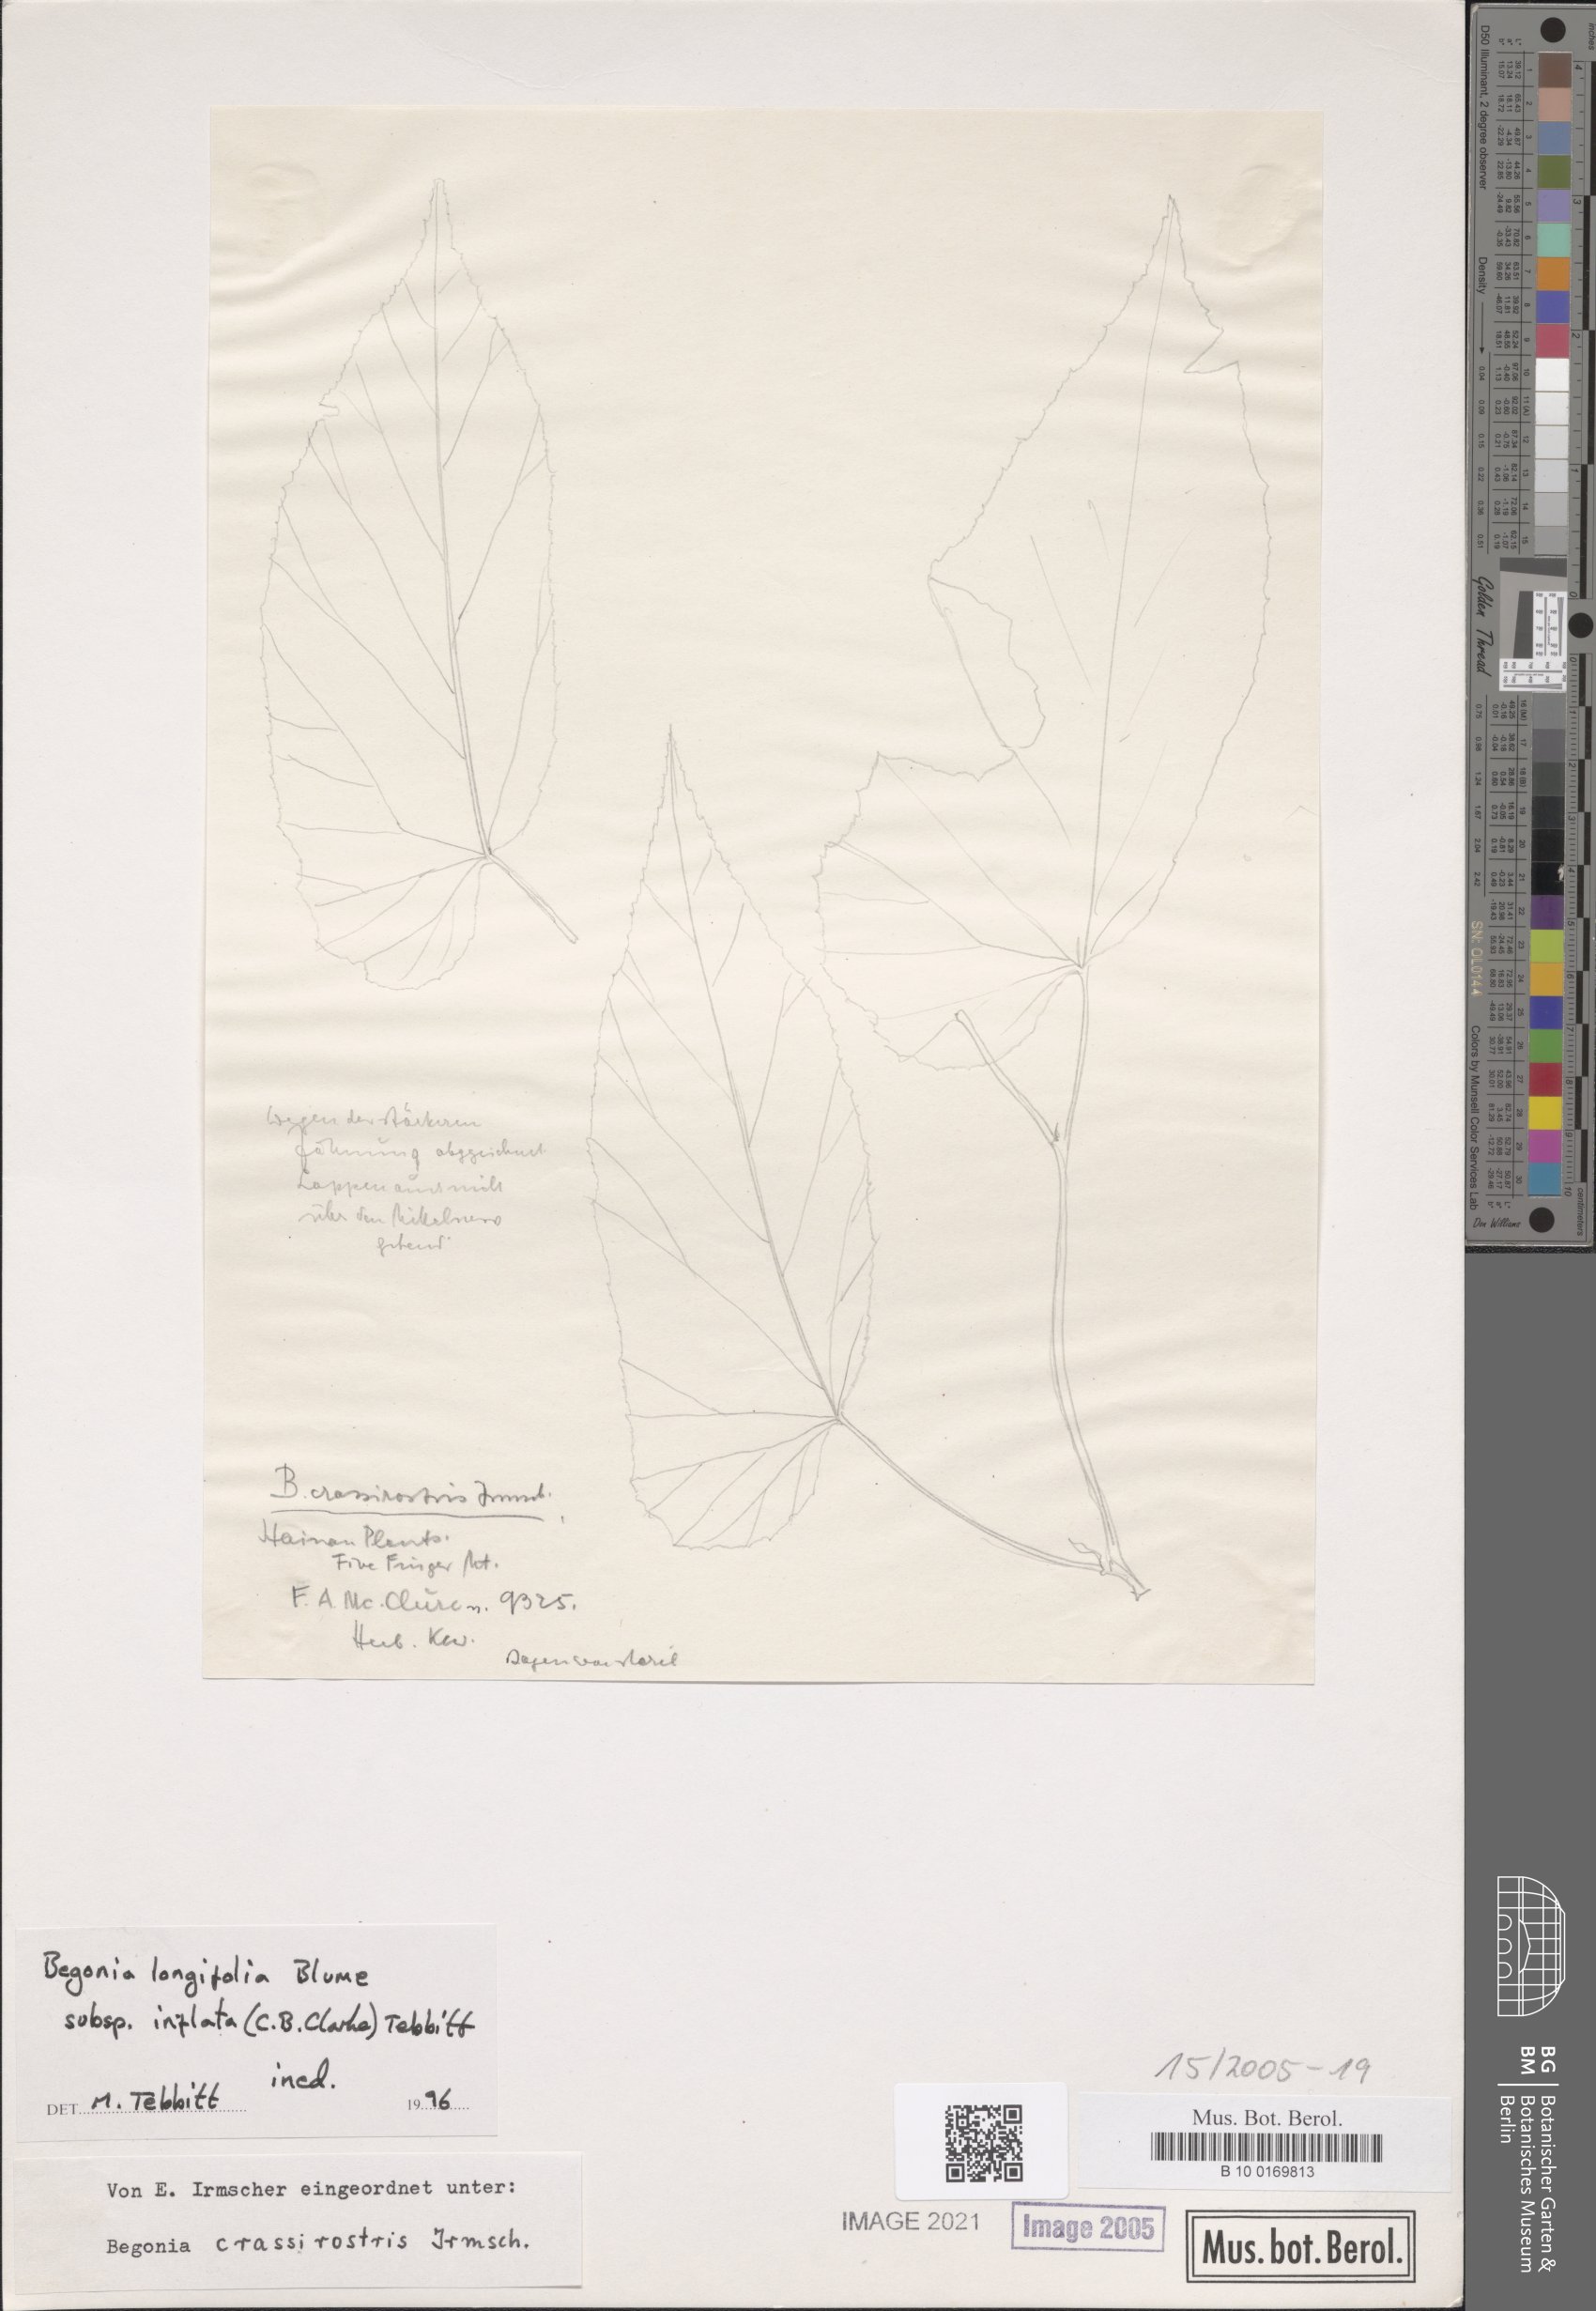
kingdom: Plantae
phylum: Tracheophyta
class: Magnoliopsida
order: Cucurbitales
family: Begoniaceae
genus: Begonia
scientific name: Begonia longifolia
